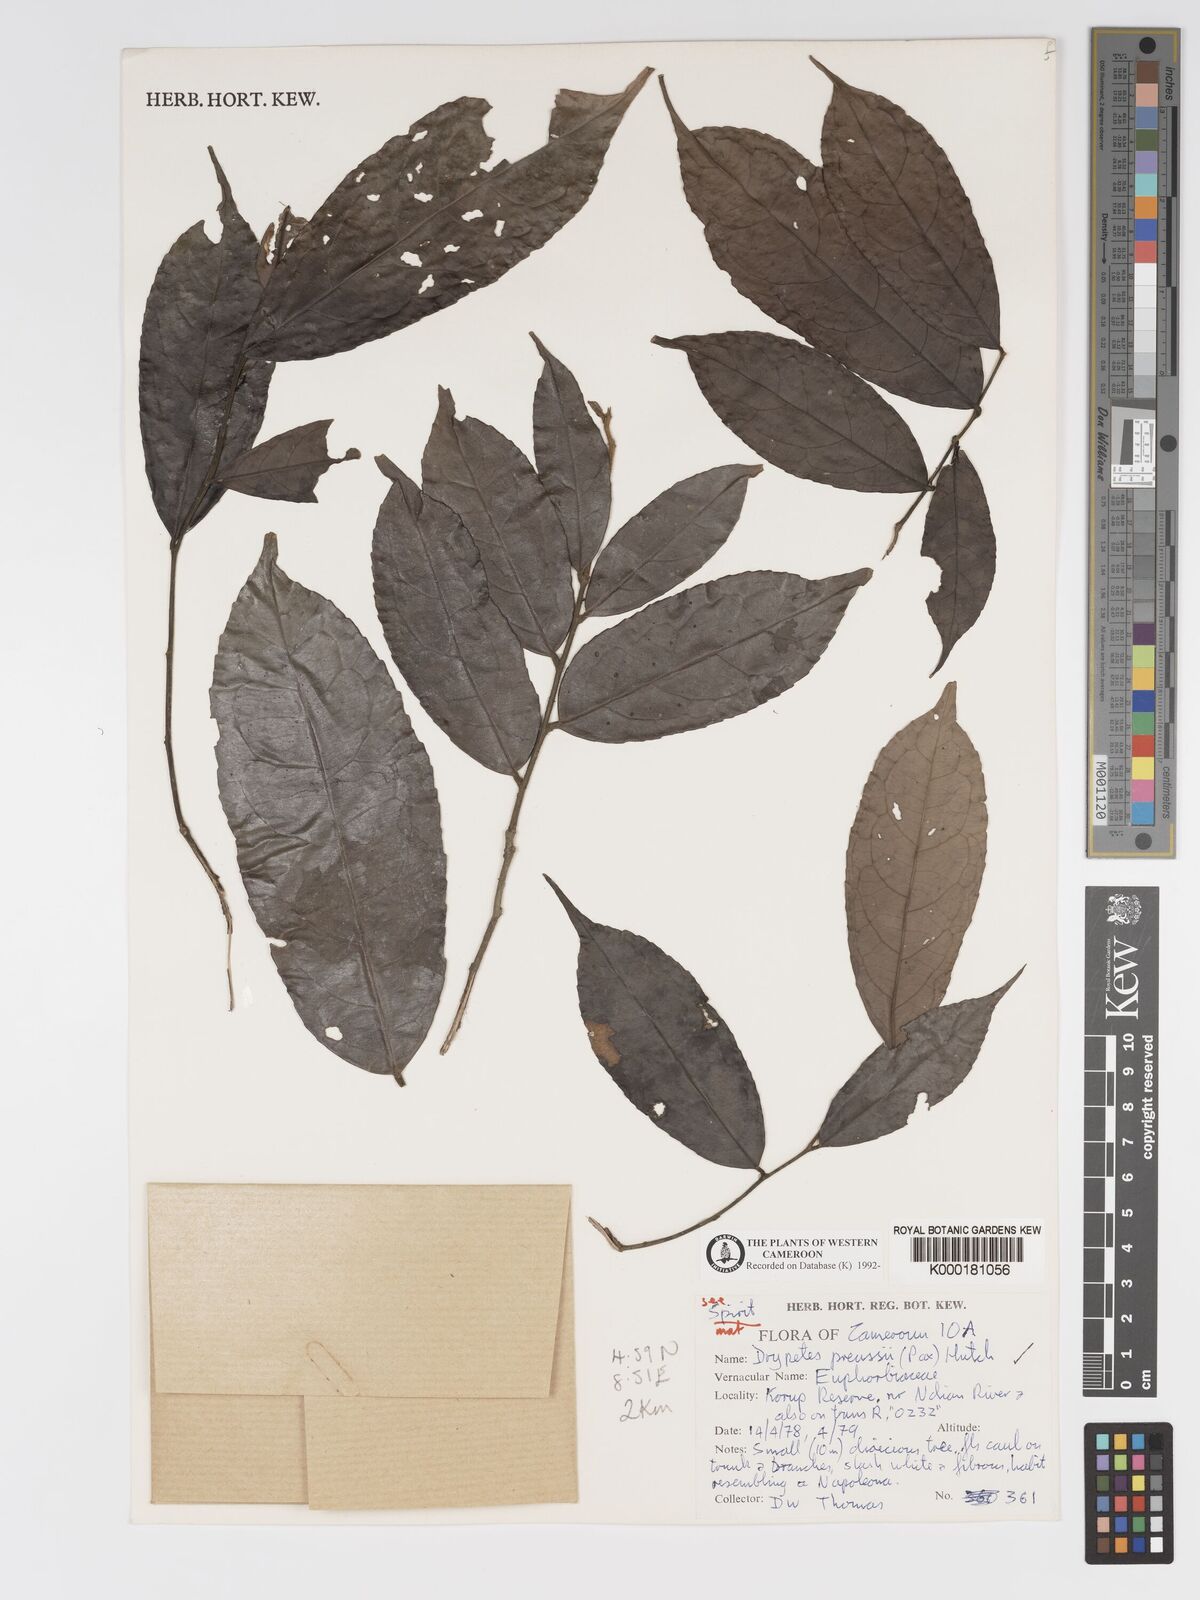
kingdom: Plantae
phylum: Tracheophyta
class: Magnoliopsida
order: Malpighiales
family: Putranjivaceae
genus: Drypetes
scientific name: Drypetes preussii
